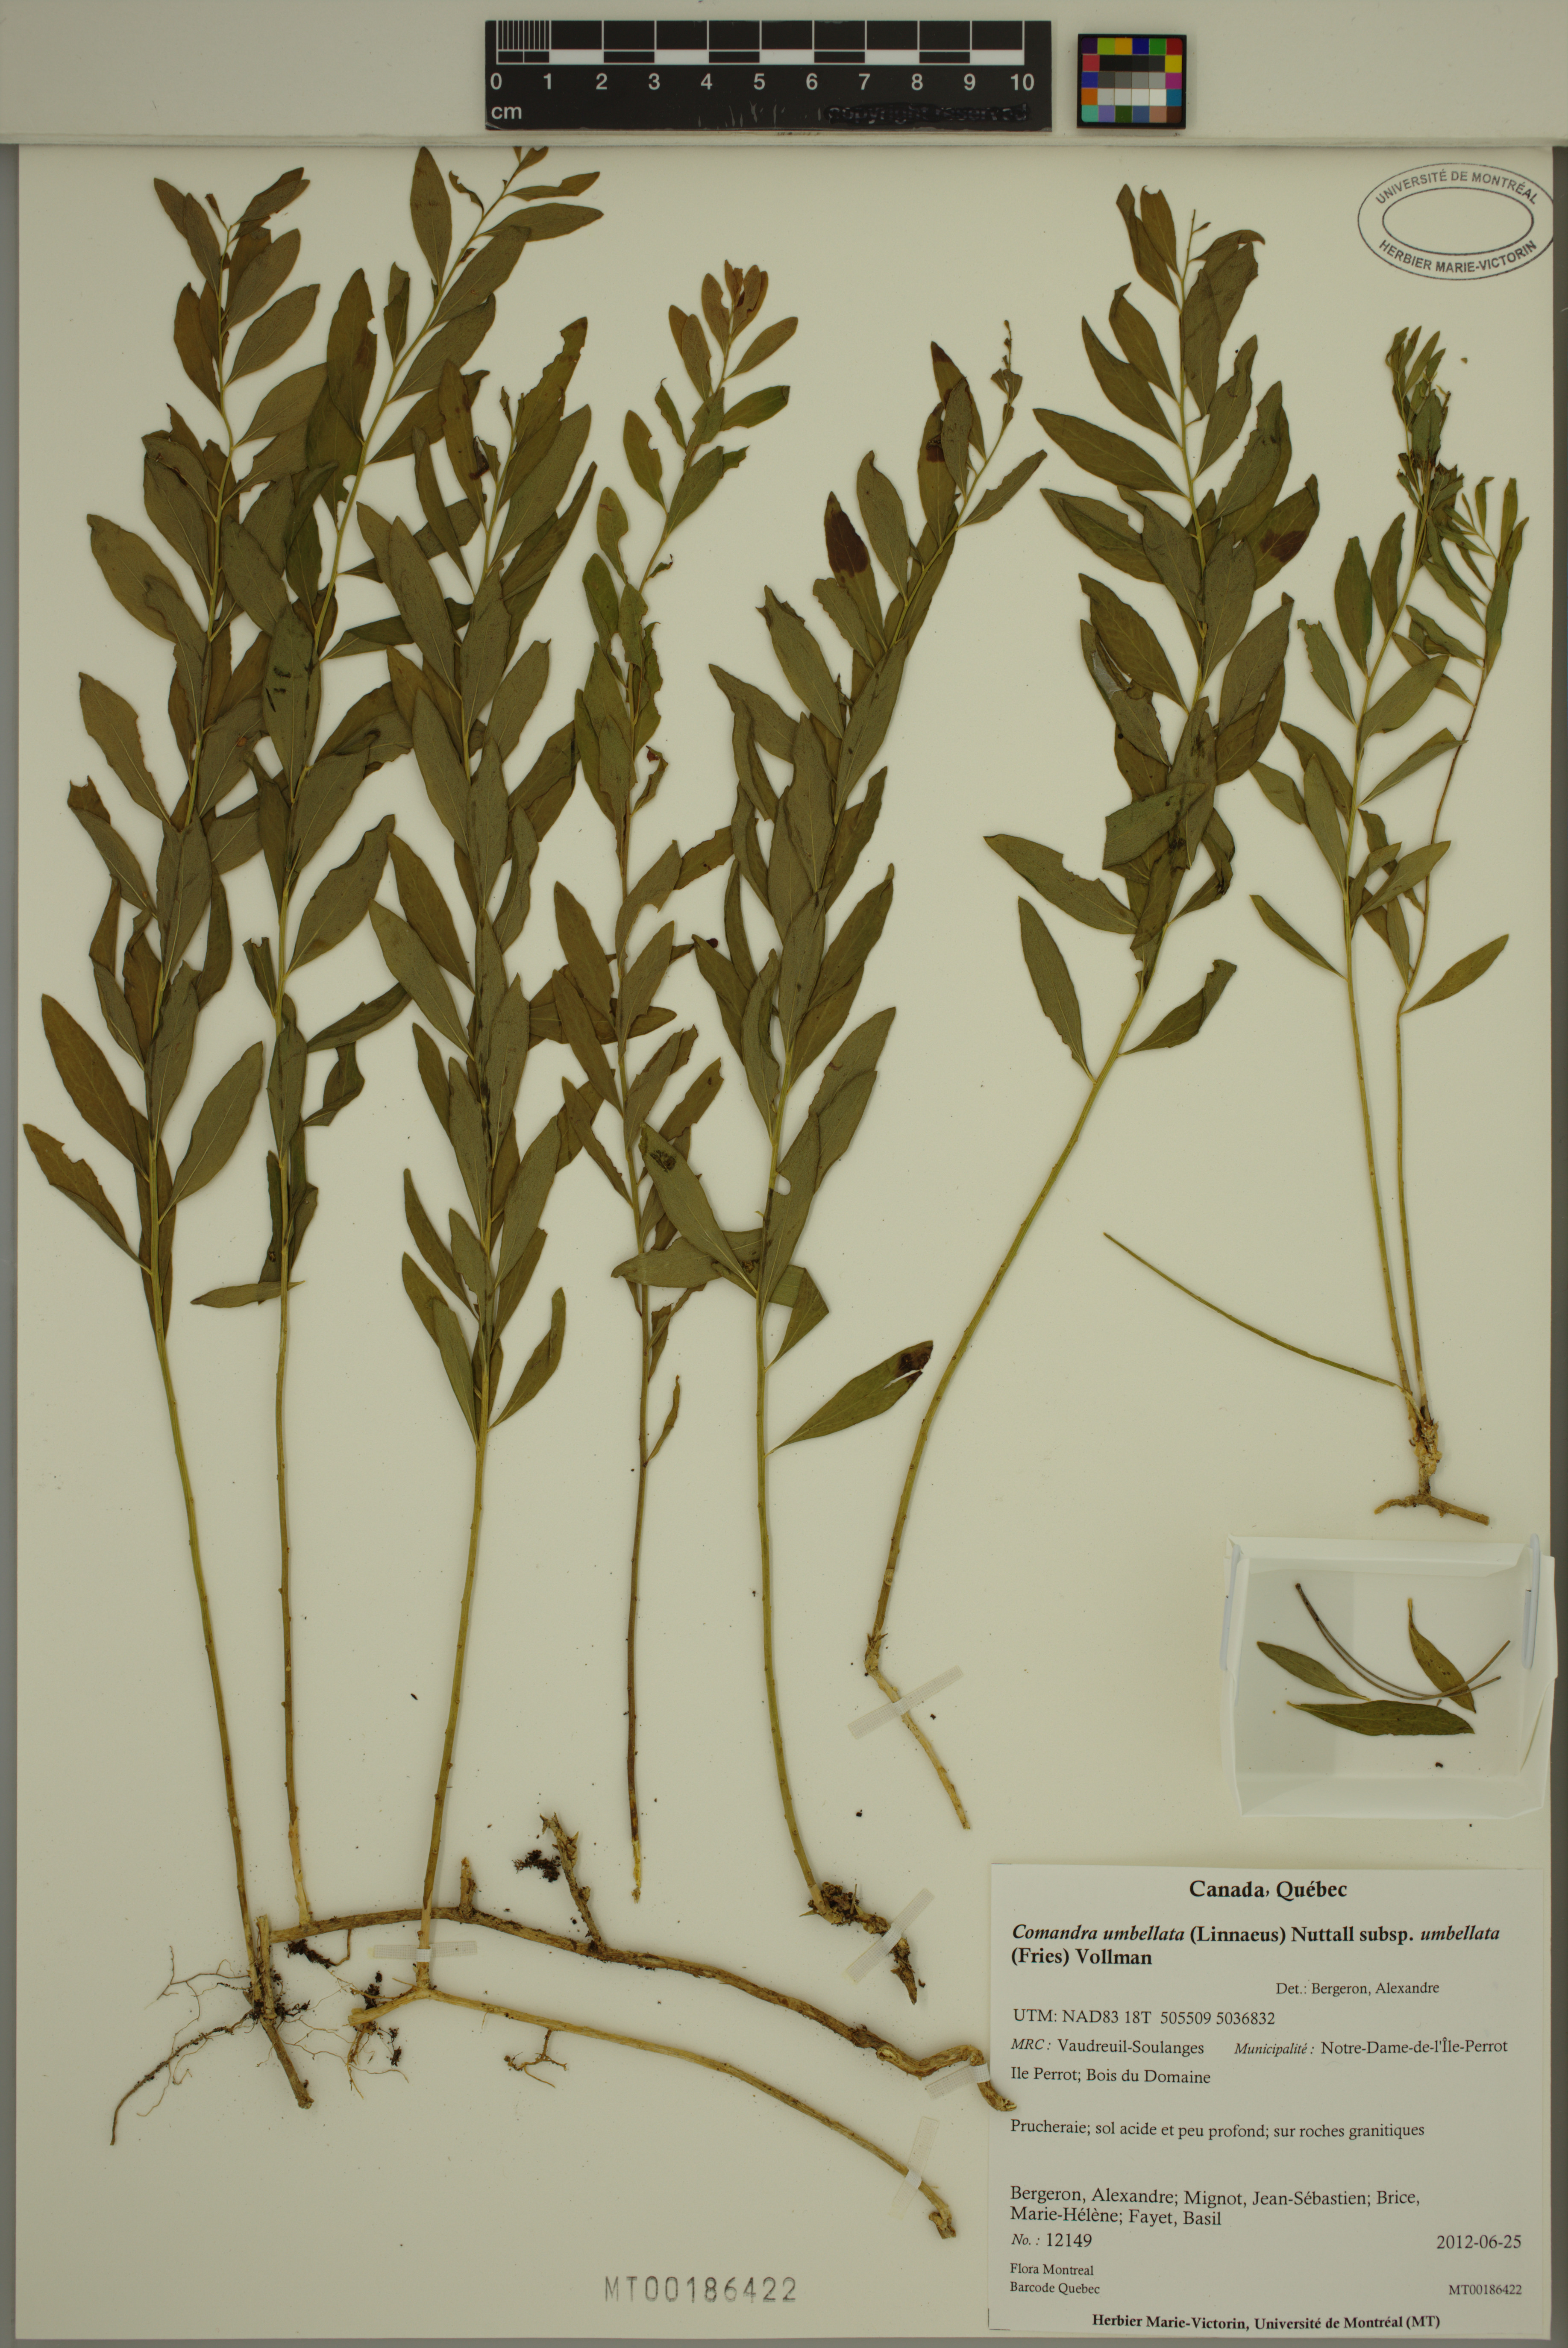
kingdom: Plantae
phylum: Tracheophyta
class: Magnoliopsida
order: Santalales
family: Comandraceae
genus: Comandra
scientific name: Comandra umbellata
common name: Bastard toadflax
